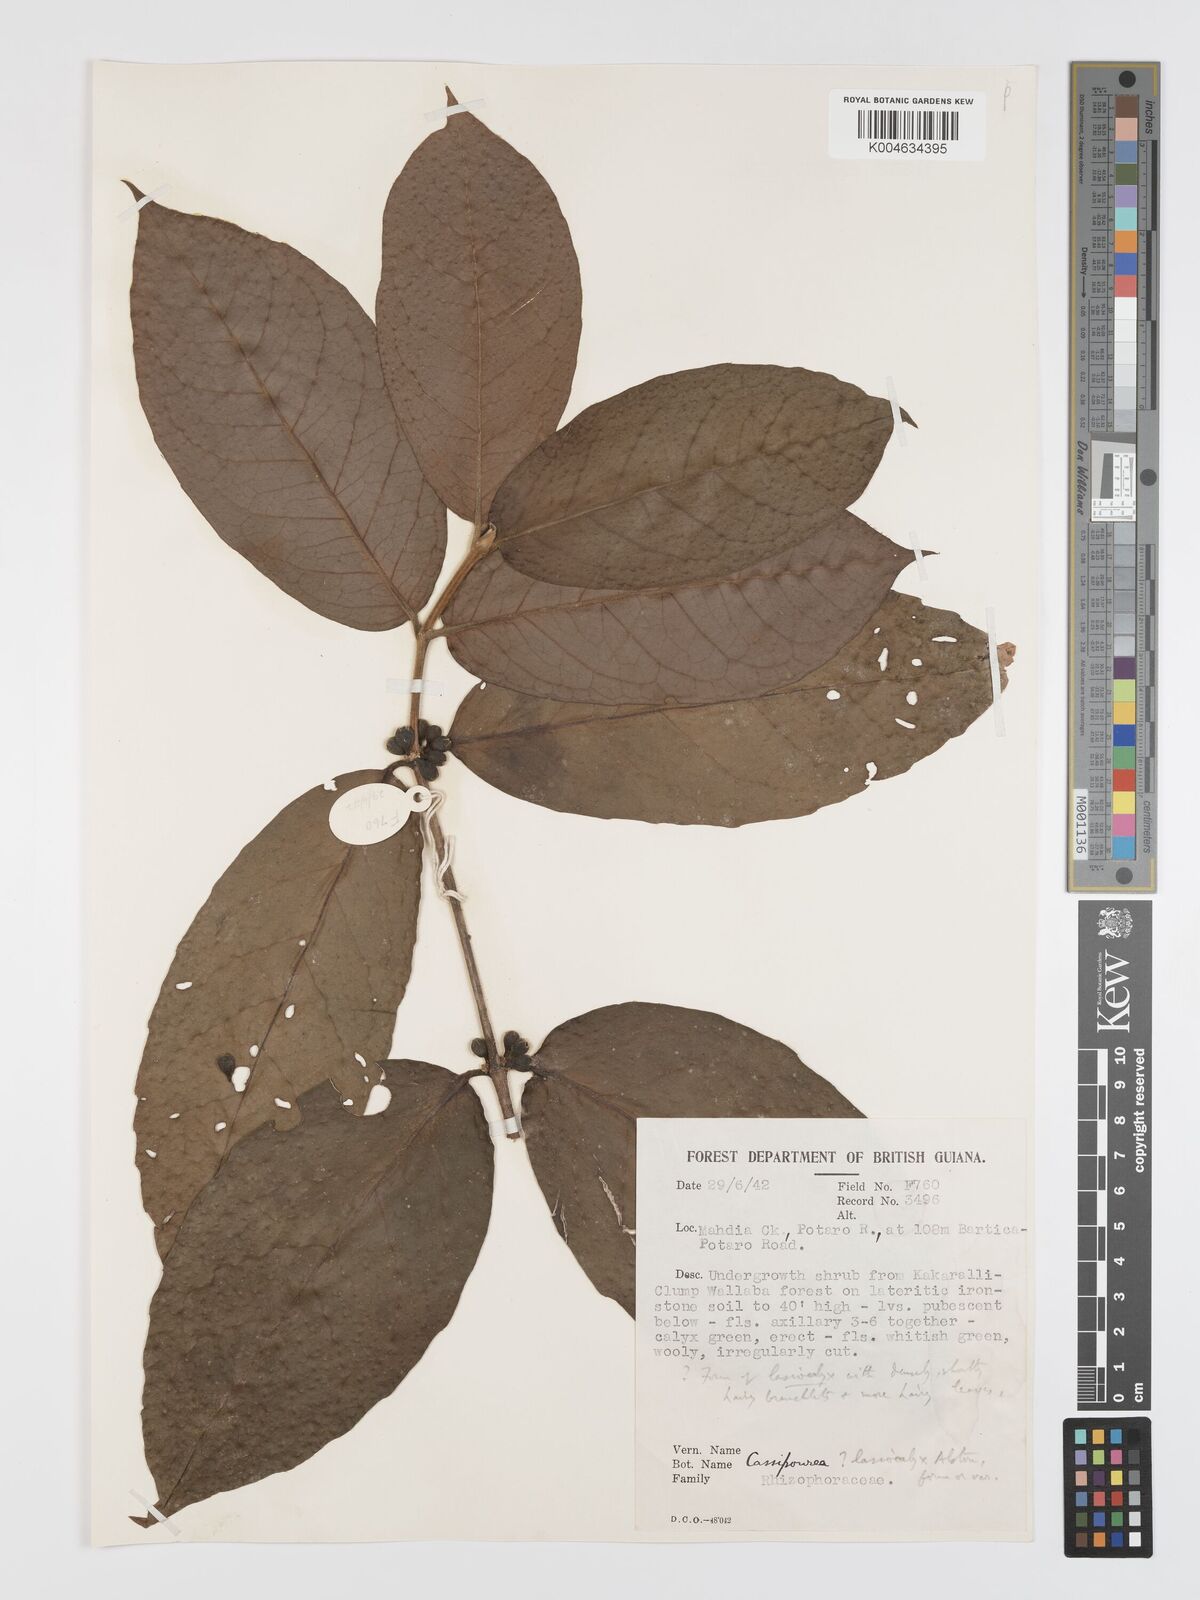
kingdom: Plantae
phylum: Tracheophyta
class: Magnoliopsida
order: Malpighiales
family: Rhizophoraceae
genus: Cassipourea
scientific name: Cassipourea lasiocalyx
